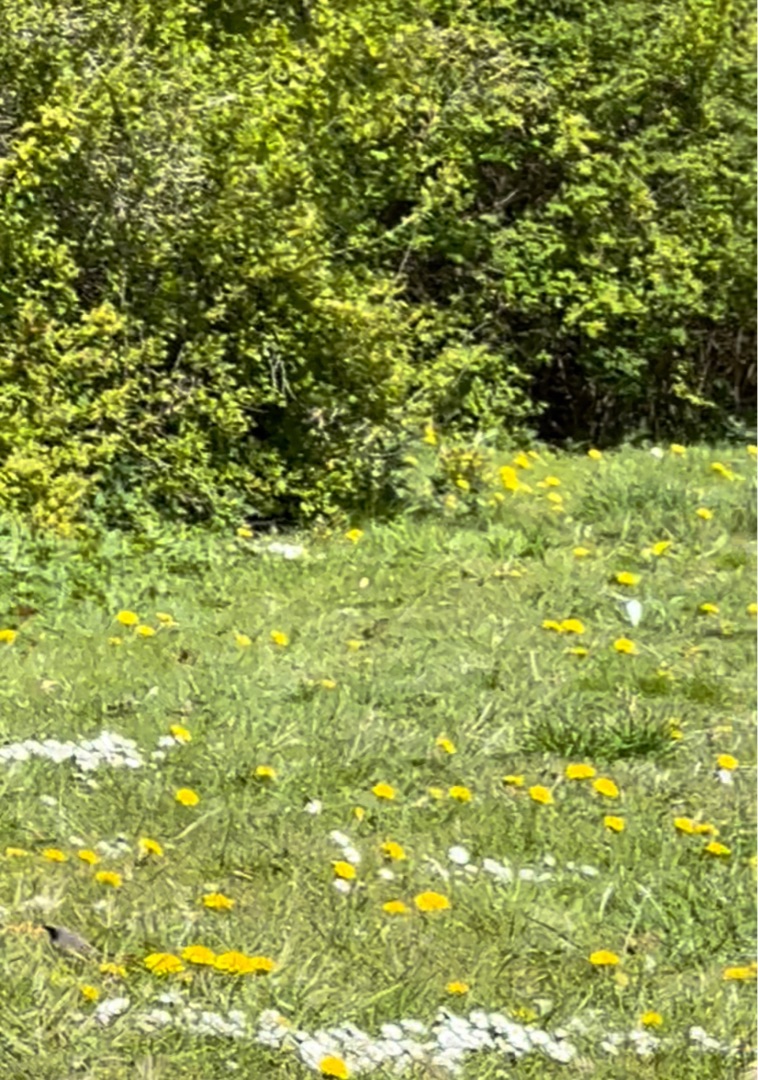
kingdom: Animalia
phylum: Chordata
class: Aves
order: Passeriformes
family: Muscicapidae
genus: Phoenicurus
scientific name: Phoenicurus phoenicurus
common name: Rødstjert
